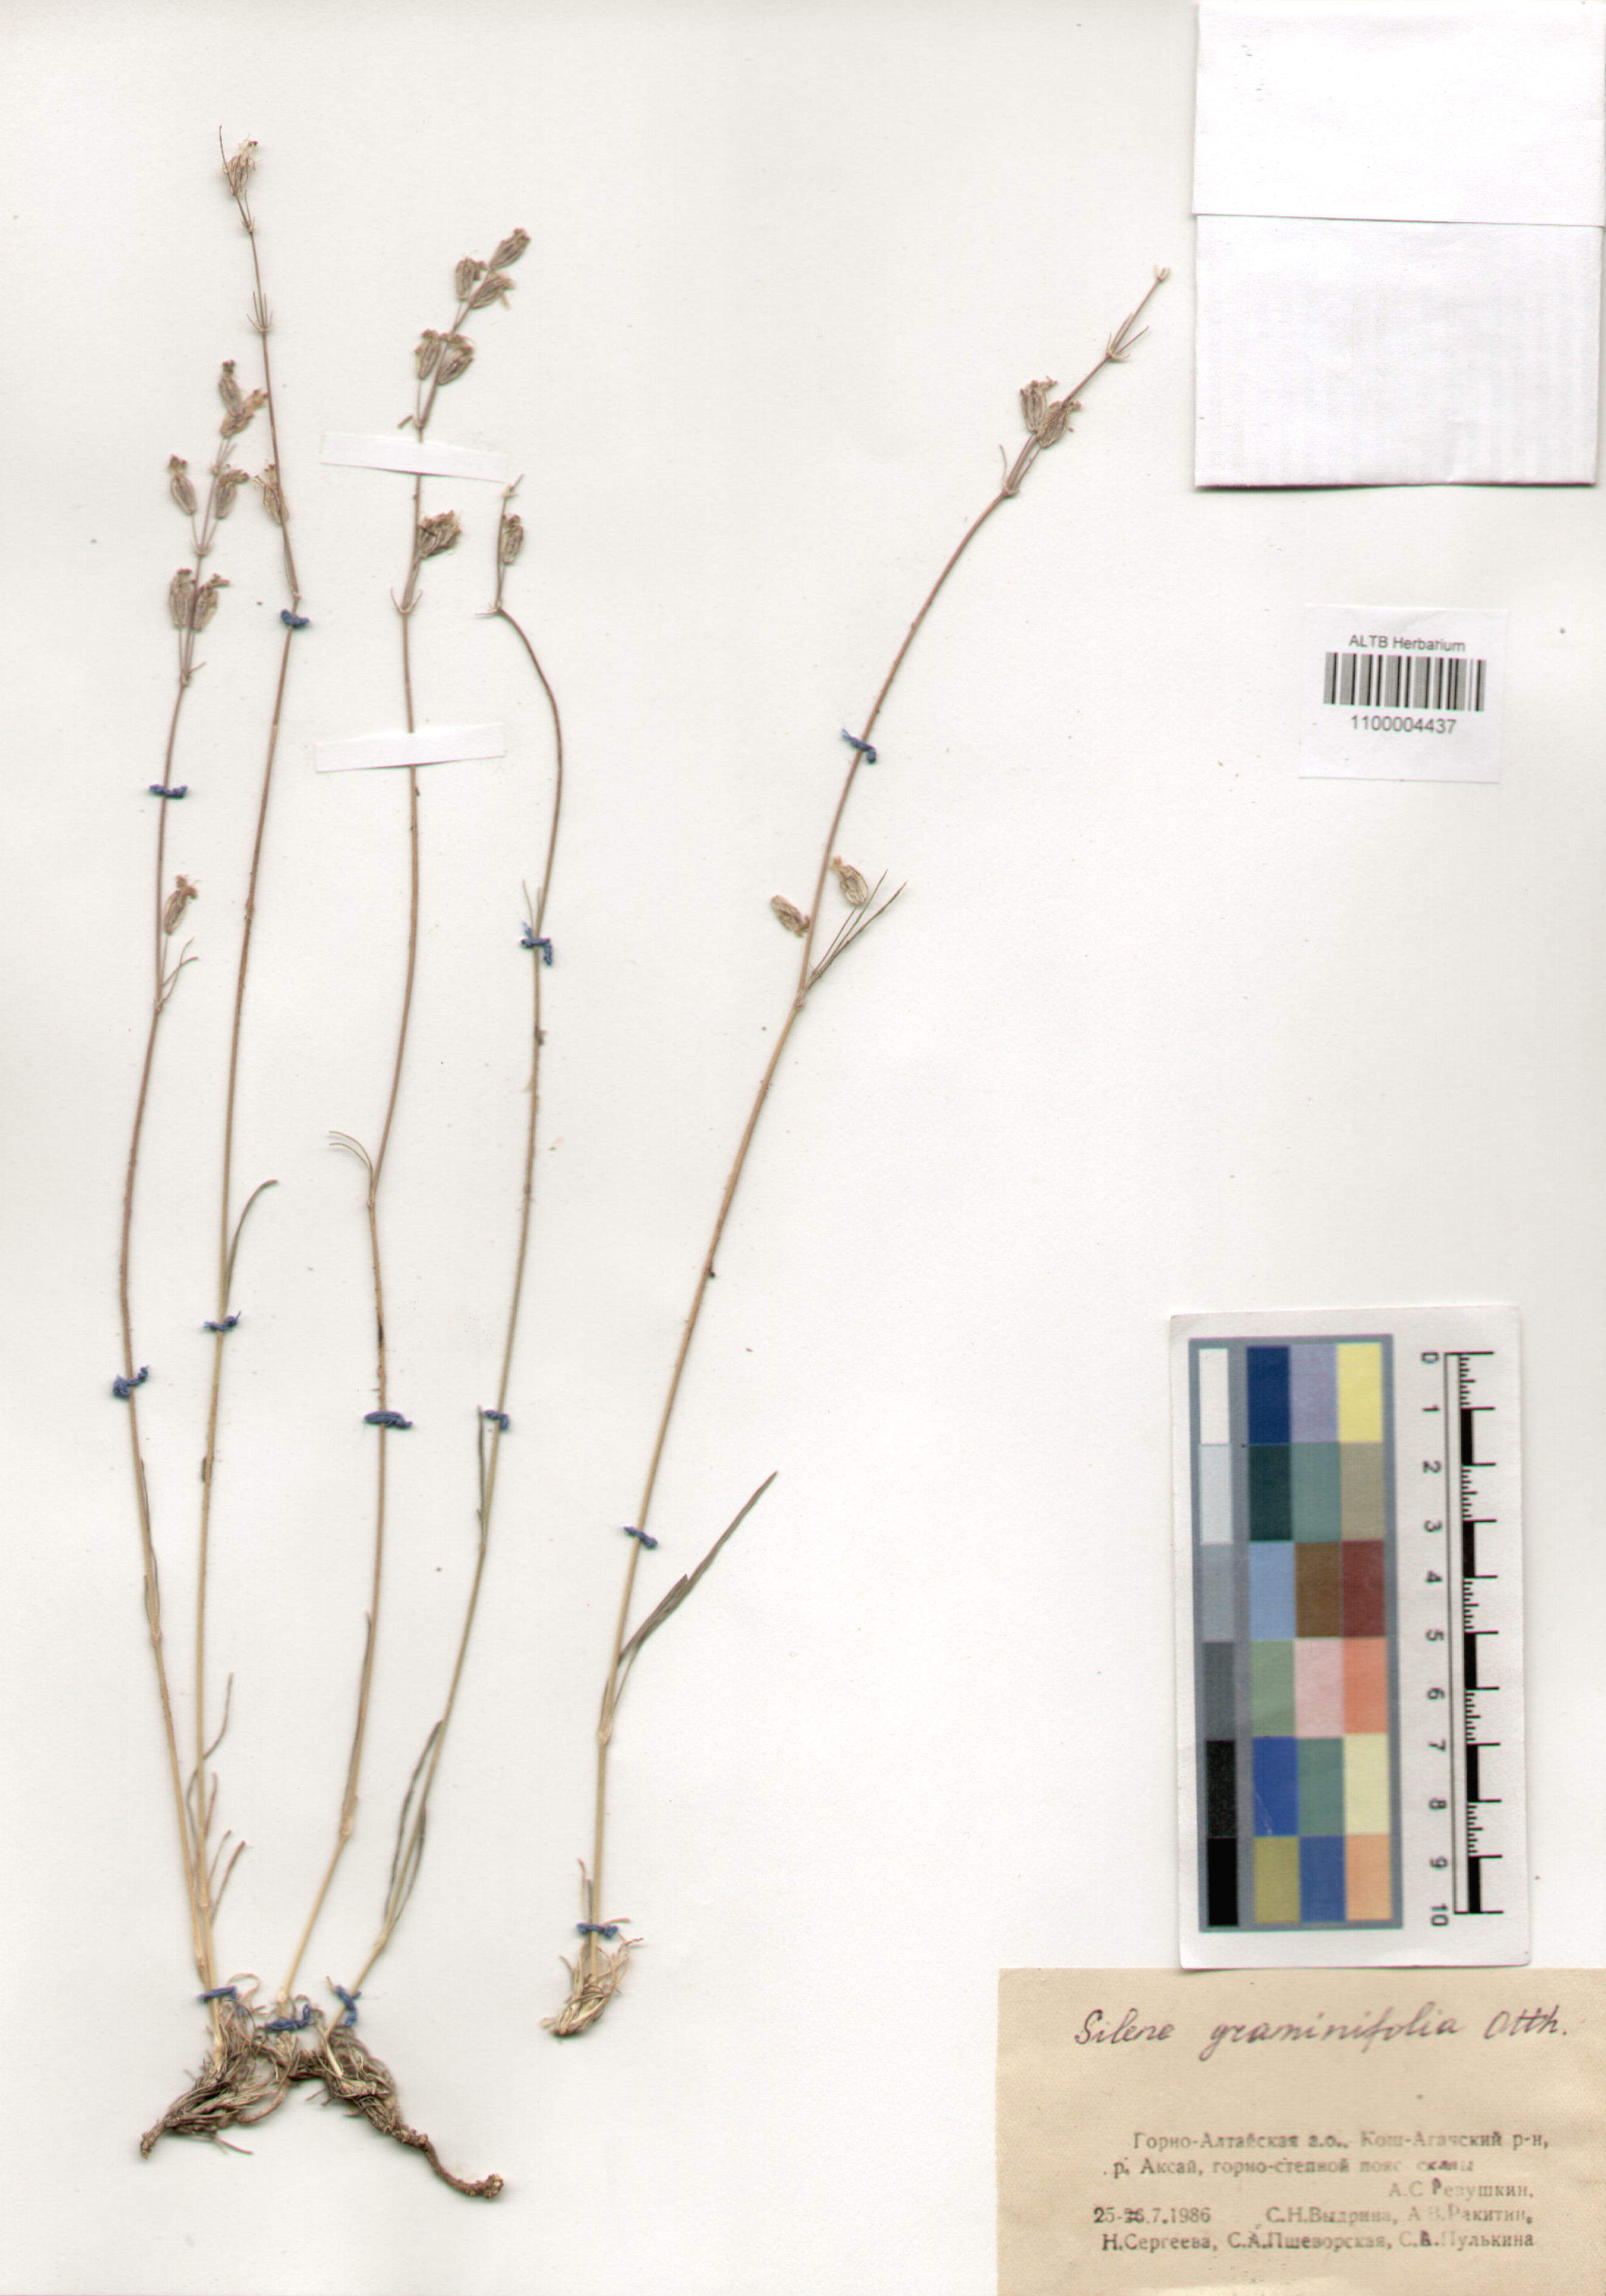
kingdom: Plantae
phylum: Tracheophyta
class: Magnoliopsida
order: Caryophyllales
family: Caryophyllaceae
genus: Silene
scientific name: Silene graminifolia
